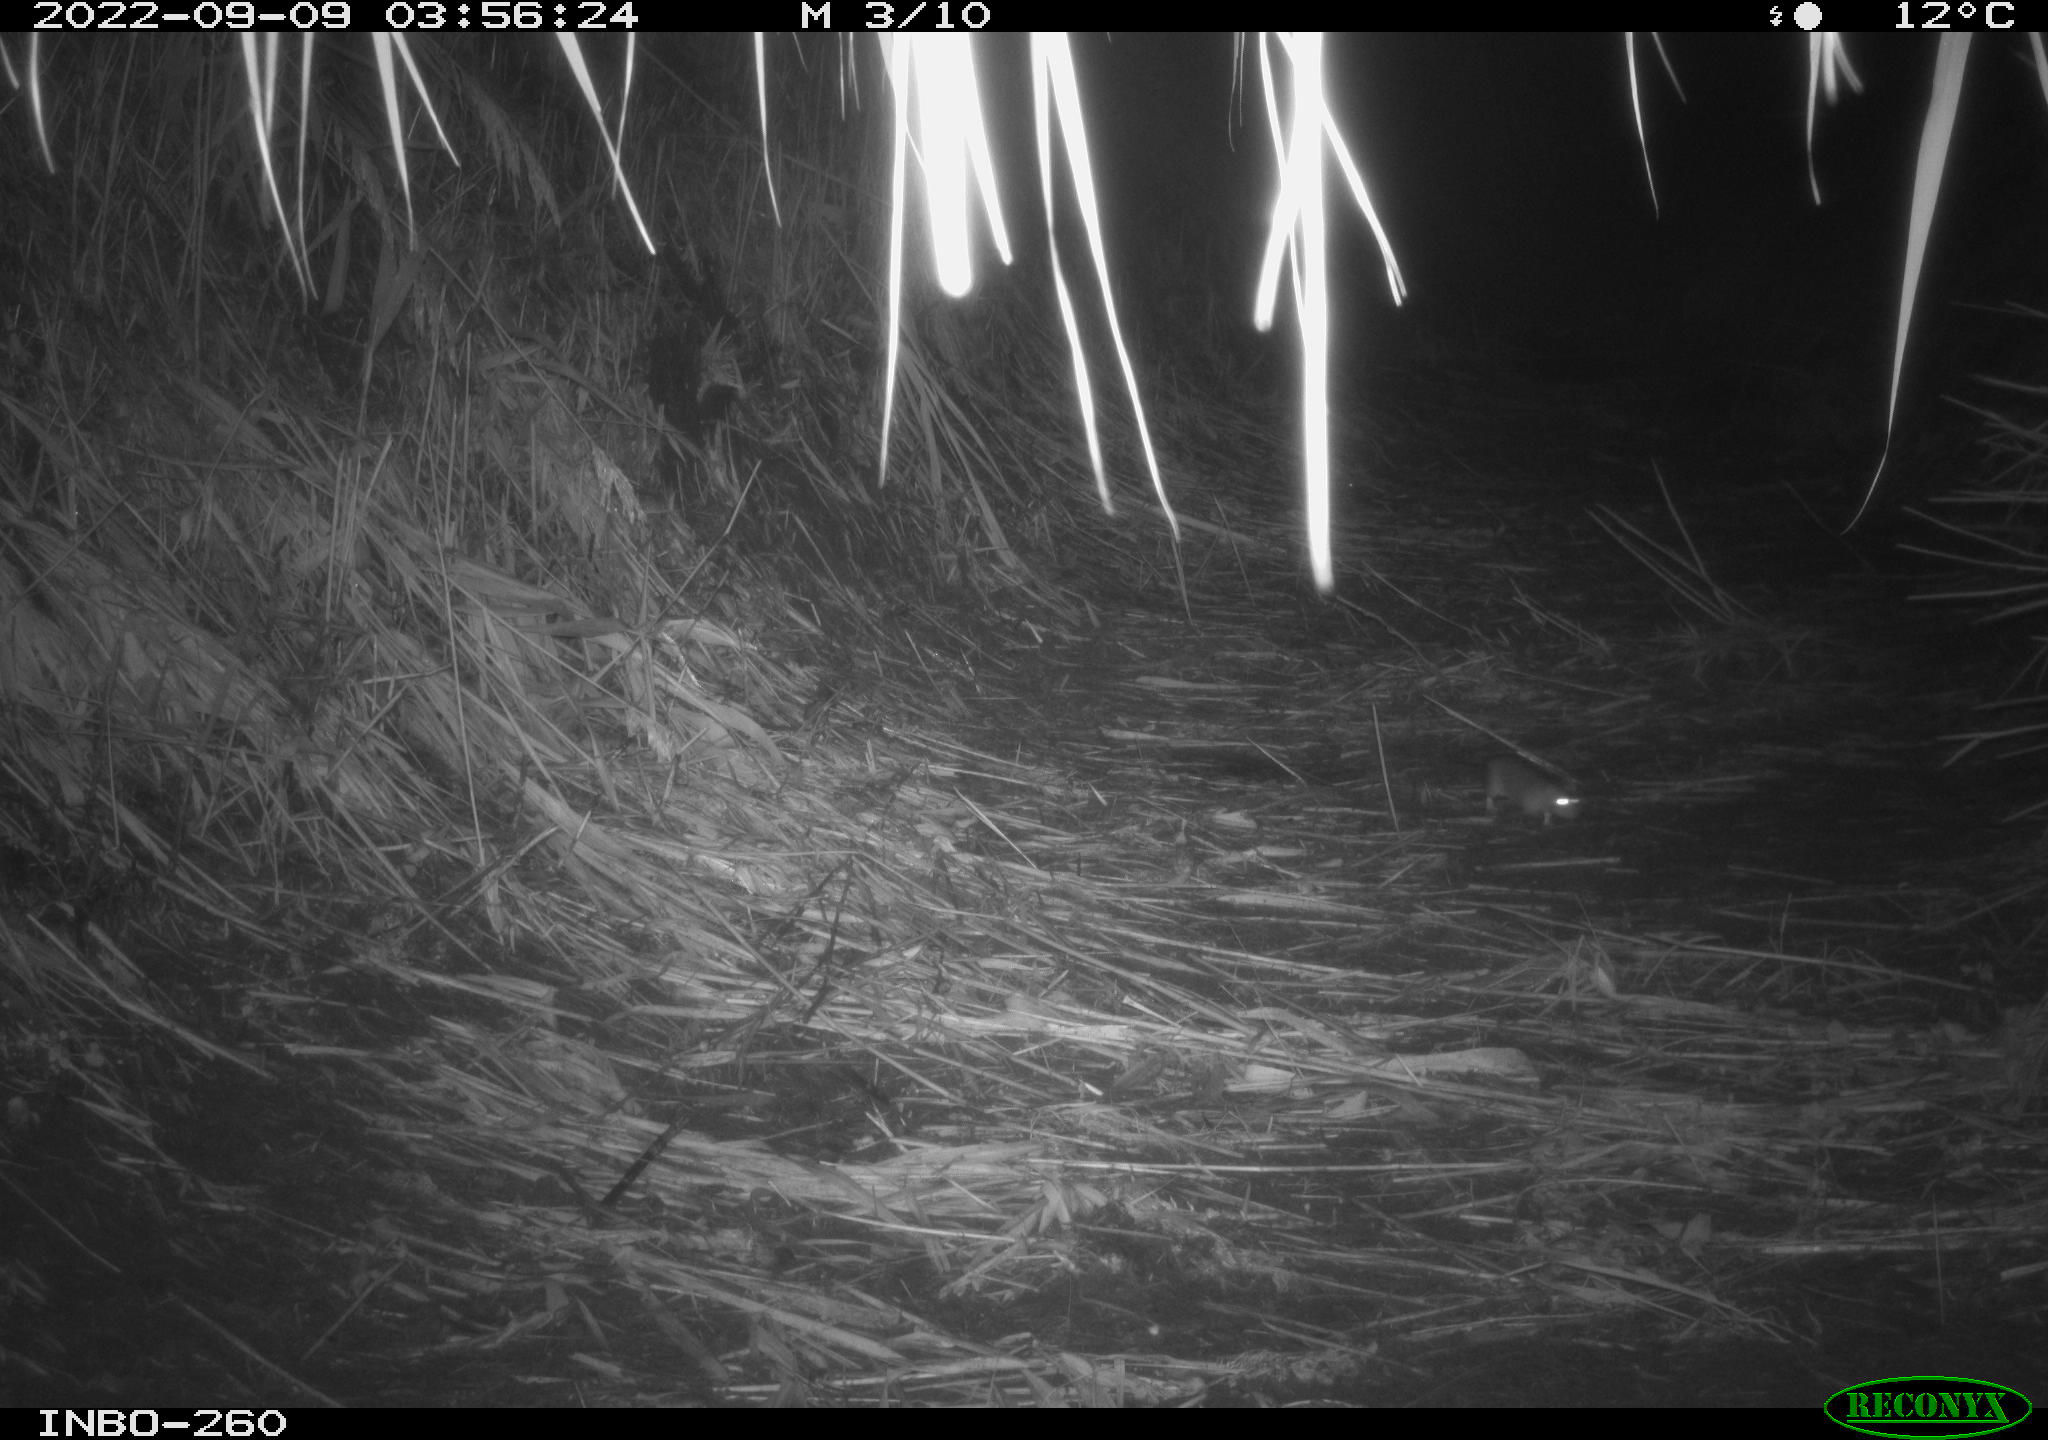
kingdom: Animalia
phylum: Chordata
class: Mammalia
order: Rodentia
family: Muridae
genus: Rattus
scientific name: Rattus norvegicus
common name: Brown rat
